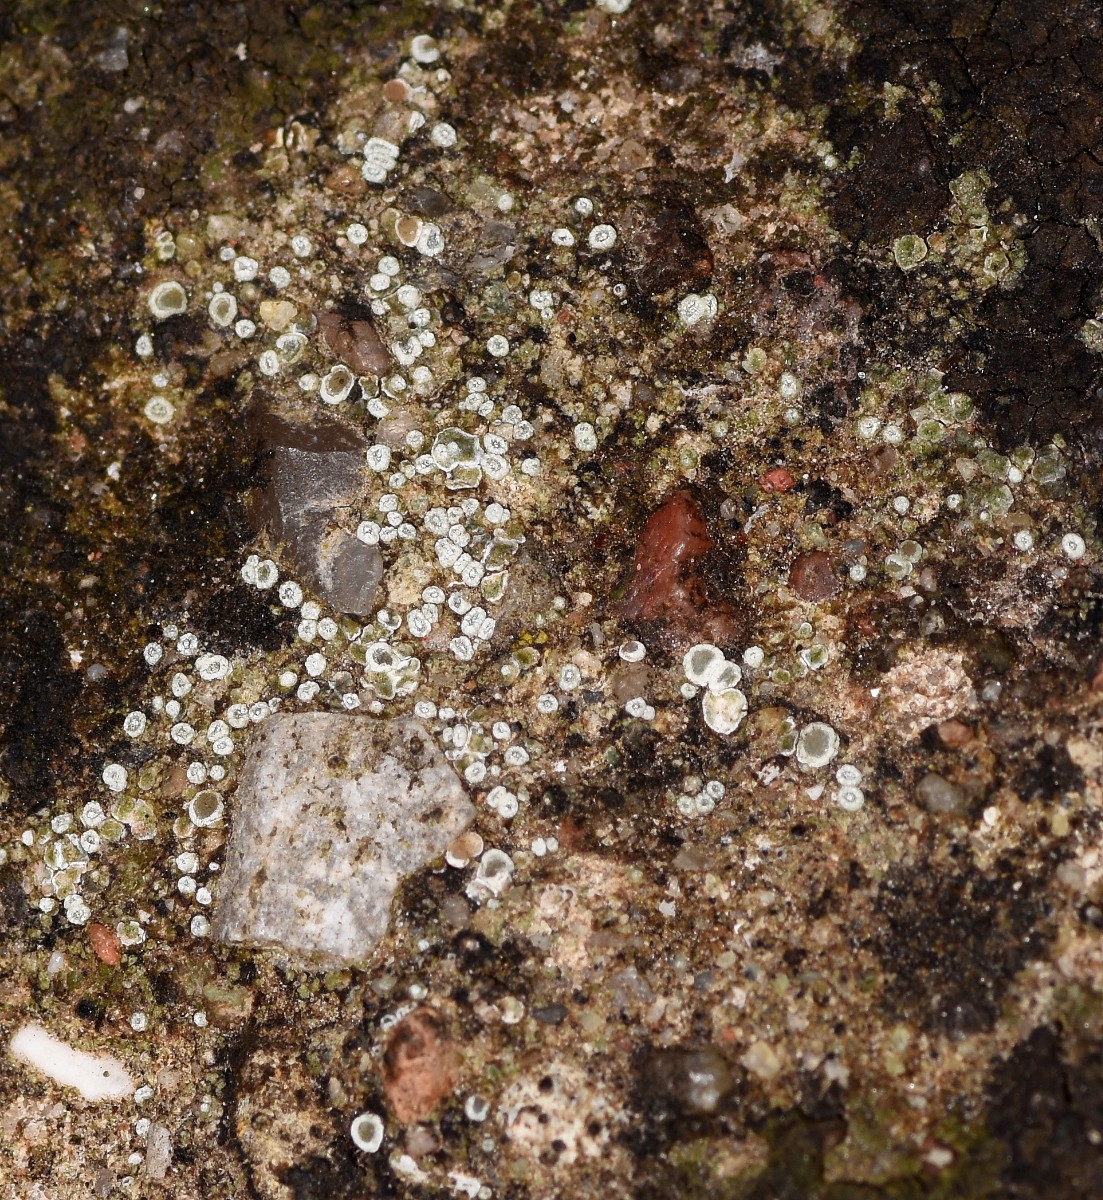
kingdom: Fungi
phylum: Ascomycota
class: Lecanoromycetes
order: Lecanorales
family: Lecanoraceae
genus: Polyozosia
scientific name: Polyozosia dispersa
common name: spredt kantskivelav
